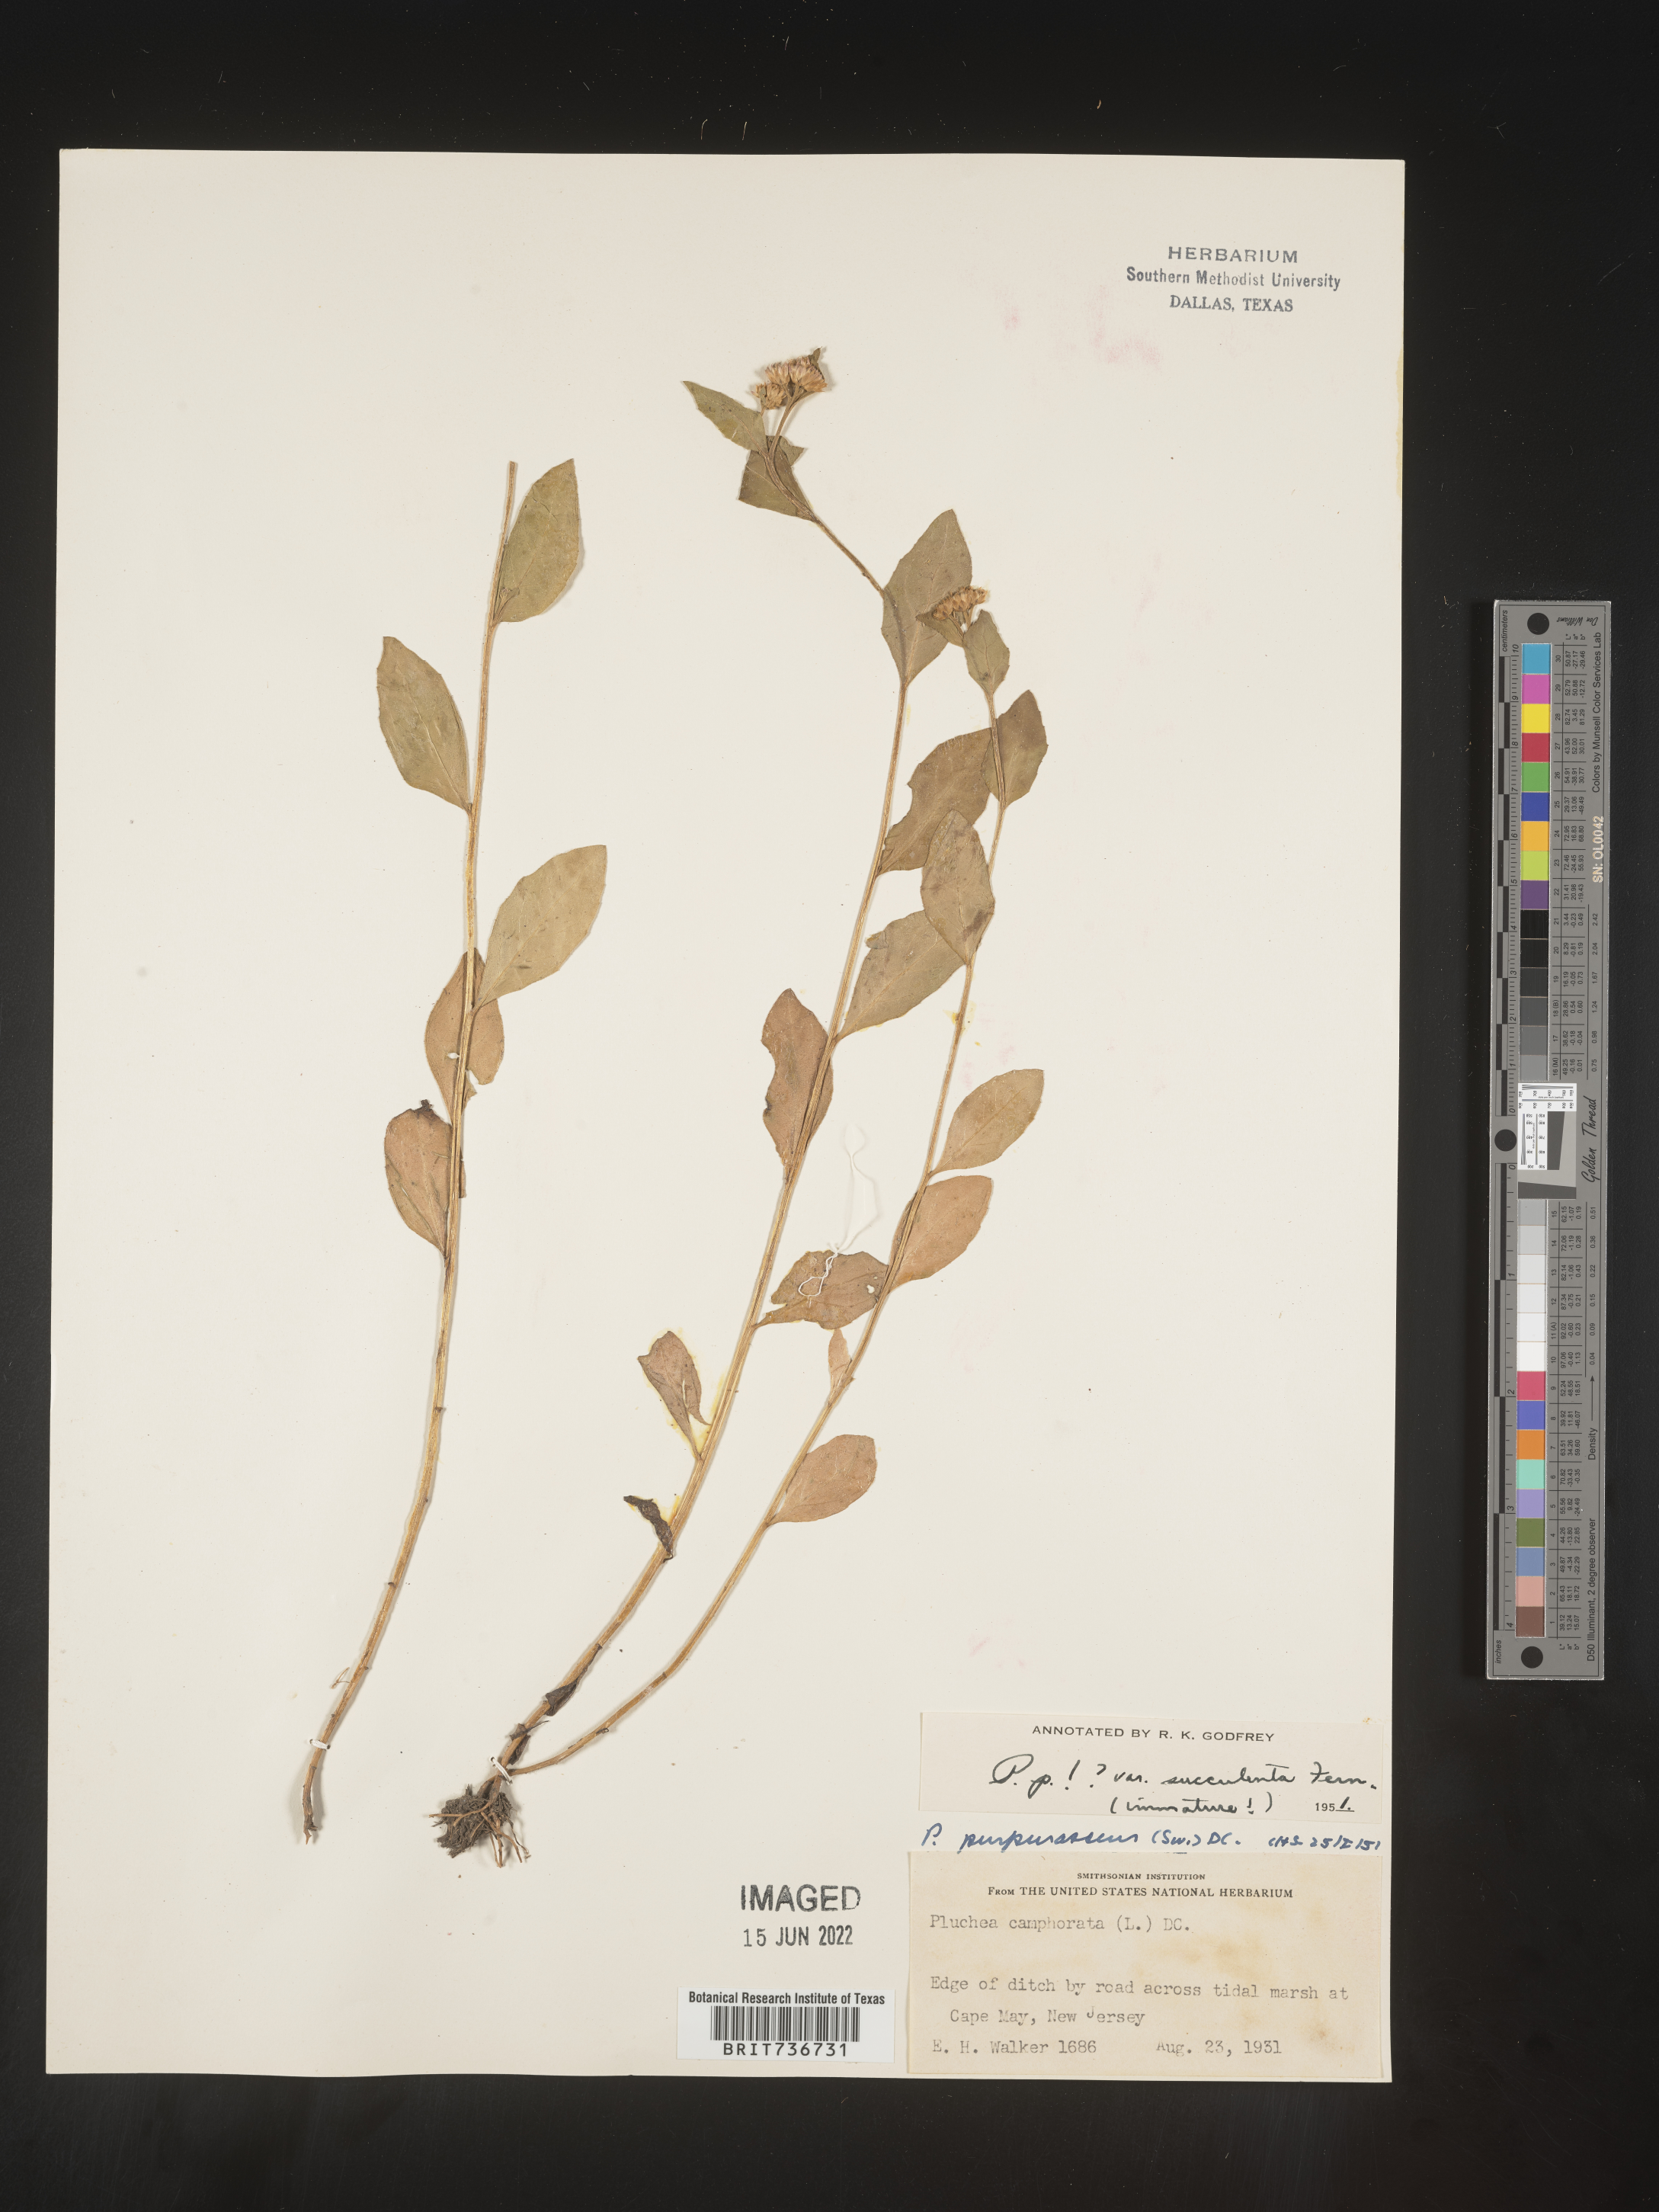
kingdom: Plantae
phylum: Tracheophyta
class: Magnoliopsida
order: Asterales
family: Asteraceae
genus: Pluchea
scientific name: Pluchea odorata
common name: Saltmarsh fleabane
